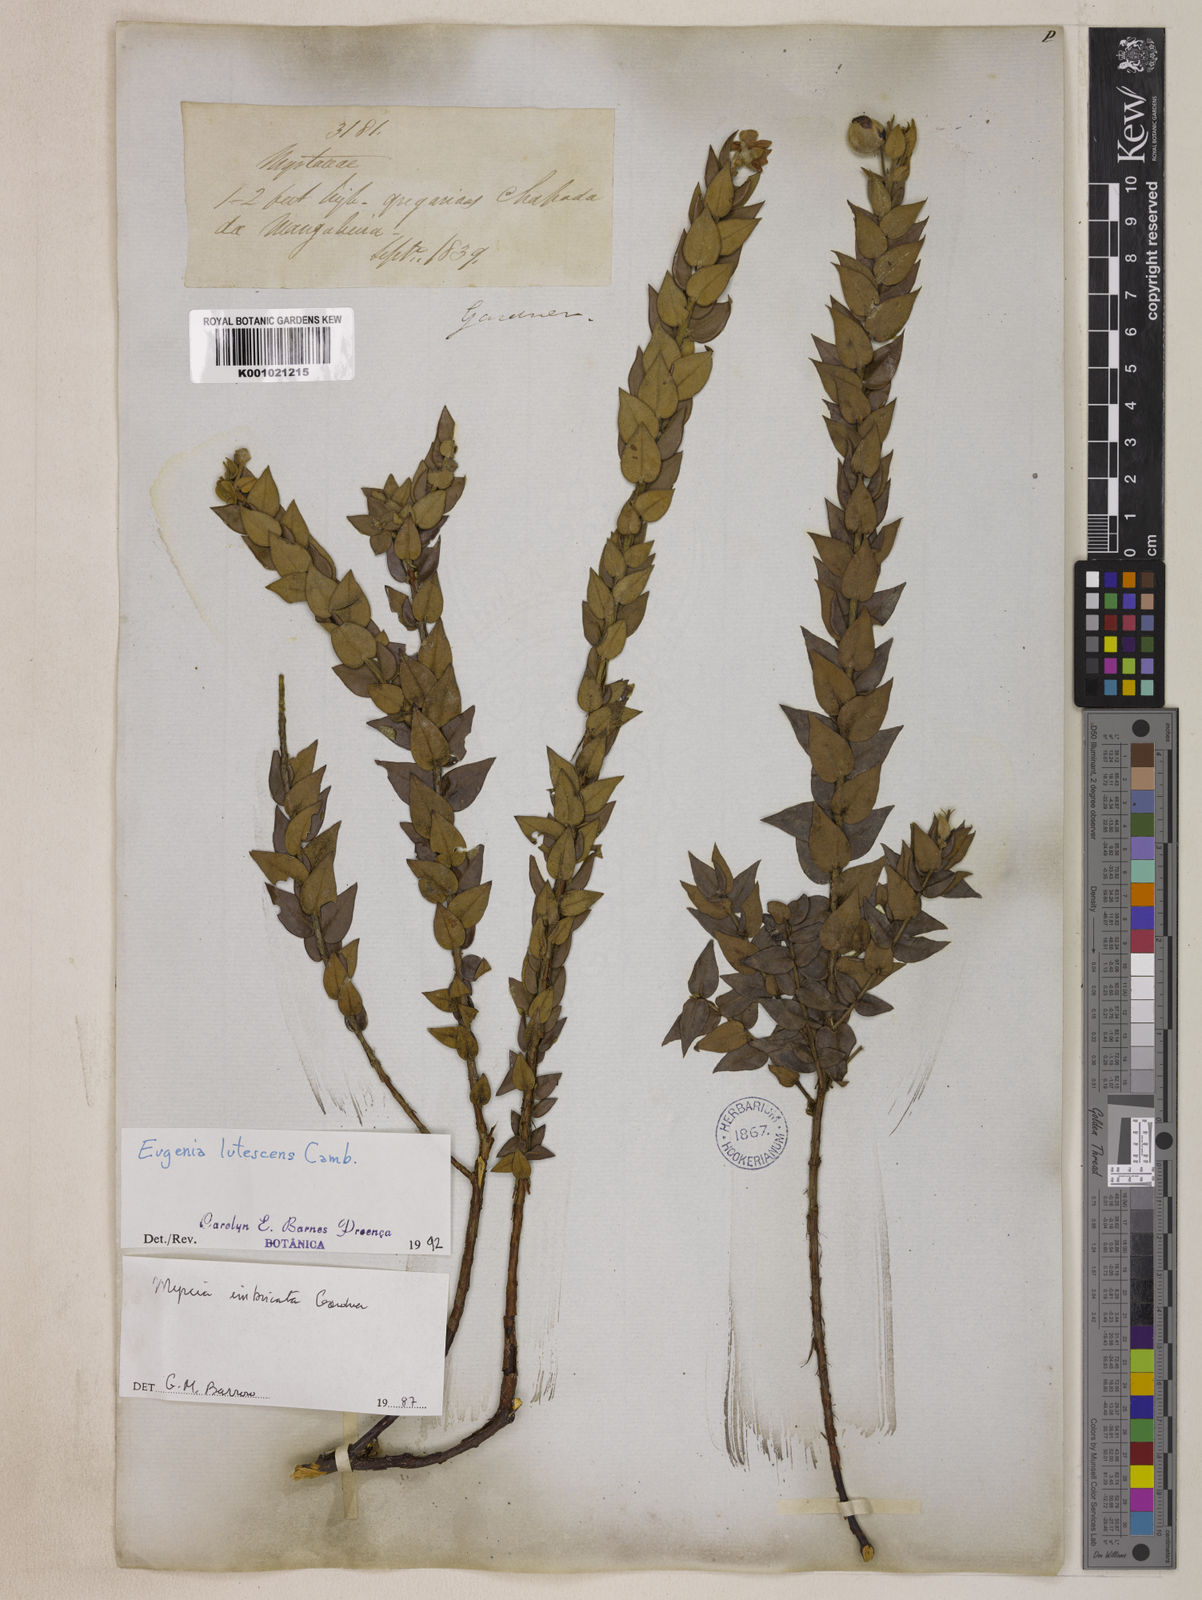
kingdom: Plantae
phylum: Tracheophyta
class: Magnoliopsida
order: Myrtales
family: Myrtaceae
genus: Eugenia
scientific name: Eugenia lutescens
